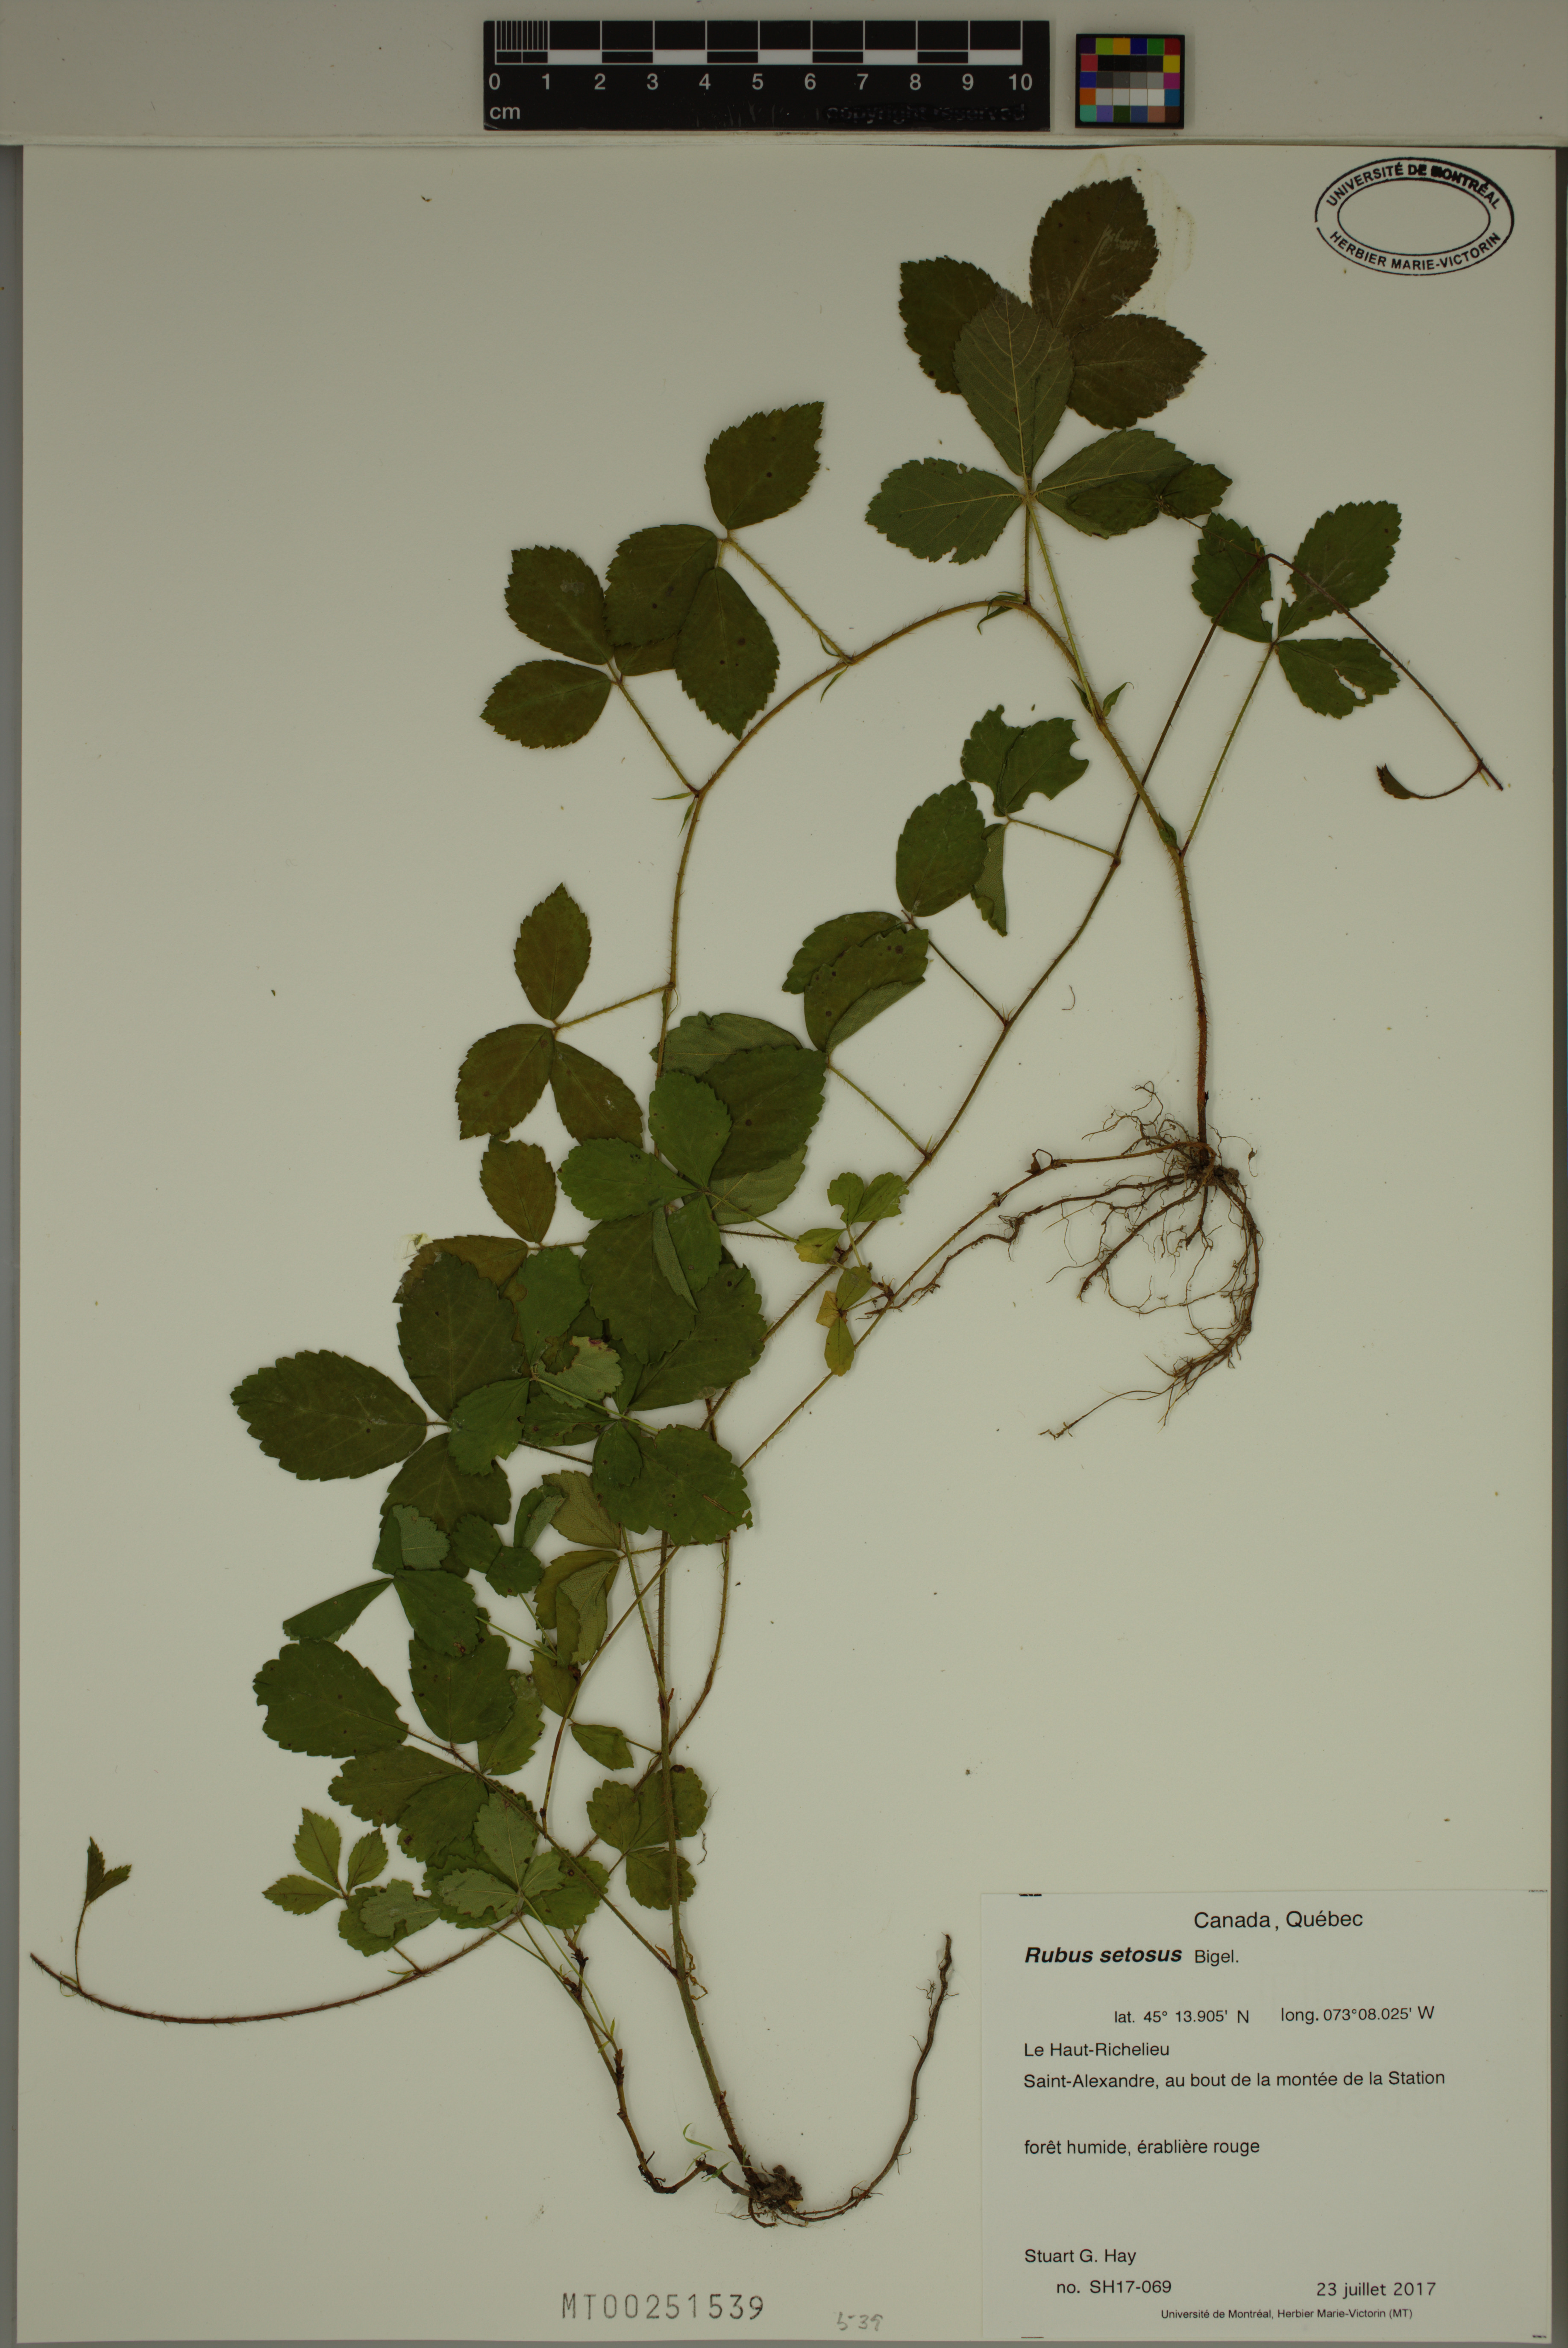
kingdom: Plantae
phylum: Tracheophyta
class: Magnoliopsida
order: Rosales
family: Rosaceae
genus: Rubus
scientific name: Rubus setosus
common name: Bristly blackberry
